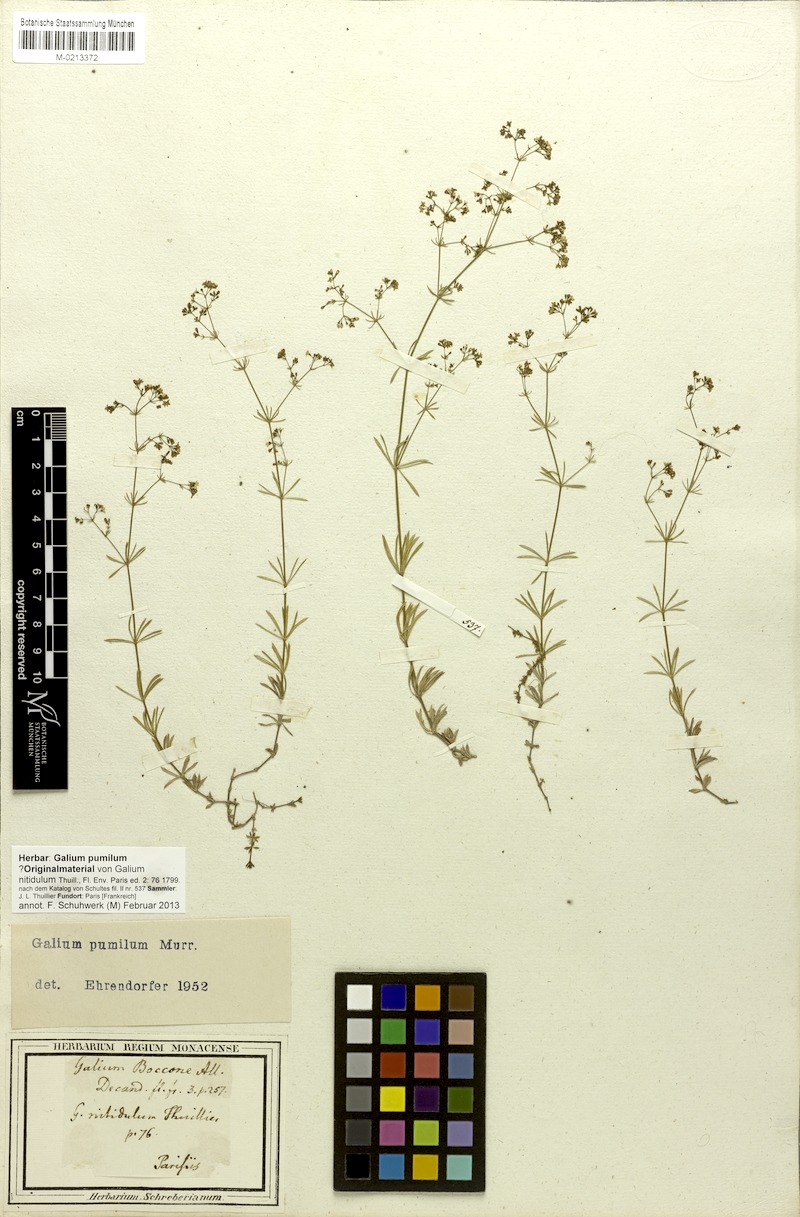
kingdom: Plantae
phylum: Tracheophyta
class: Magnoliopsida
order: Gentianales
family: Rubiaceae
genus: Galium
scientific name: Galium pumilum
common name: Slender bedstraw
